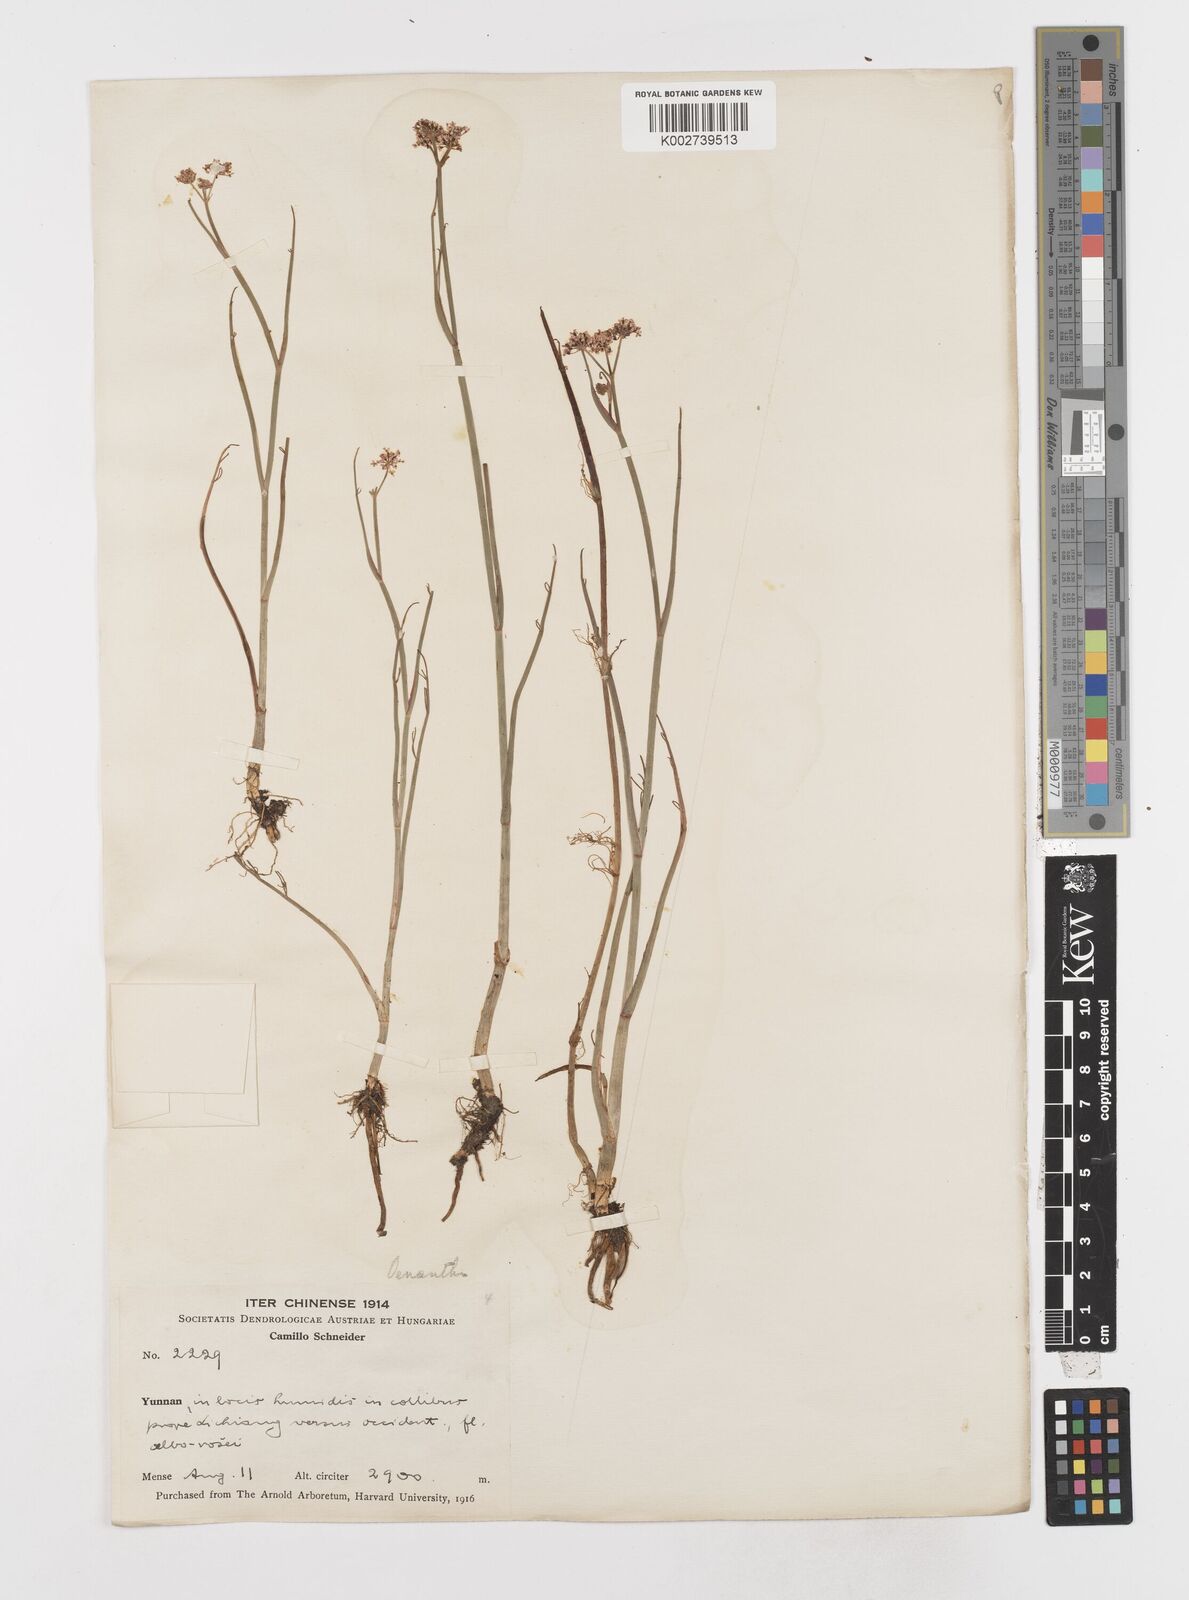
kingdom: Plantae
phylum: Tracheophyta
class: Magnoliopsida
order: Apiales
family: Apiaceae
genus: Oenanthe
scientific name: Oenanthe linearis
